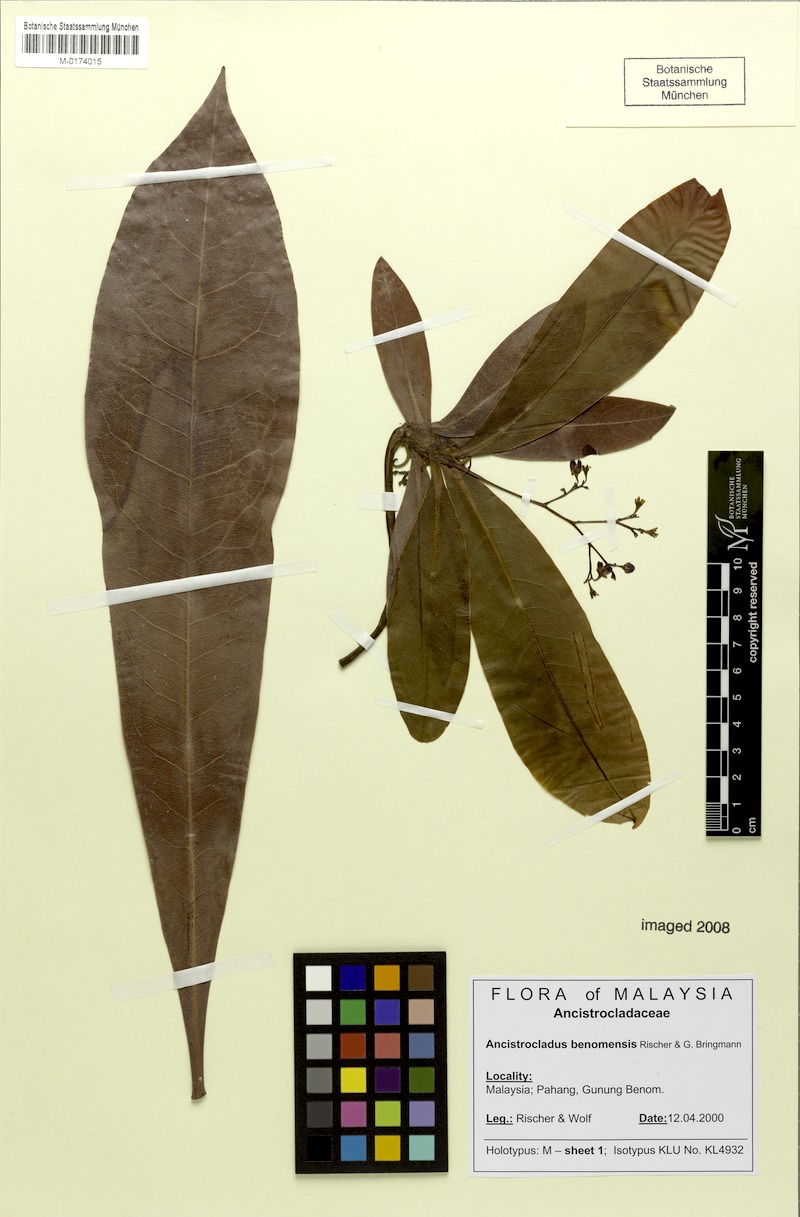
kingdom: Plantae
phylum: Tracheophyta
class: Magnoliopsida
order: Caryophyllales
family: Ancistrocladaceae
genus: Ancistrocladus
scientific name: Ancistrocladus tectorius
